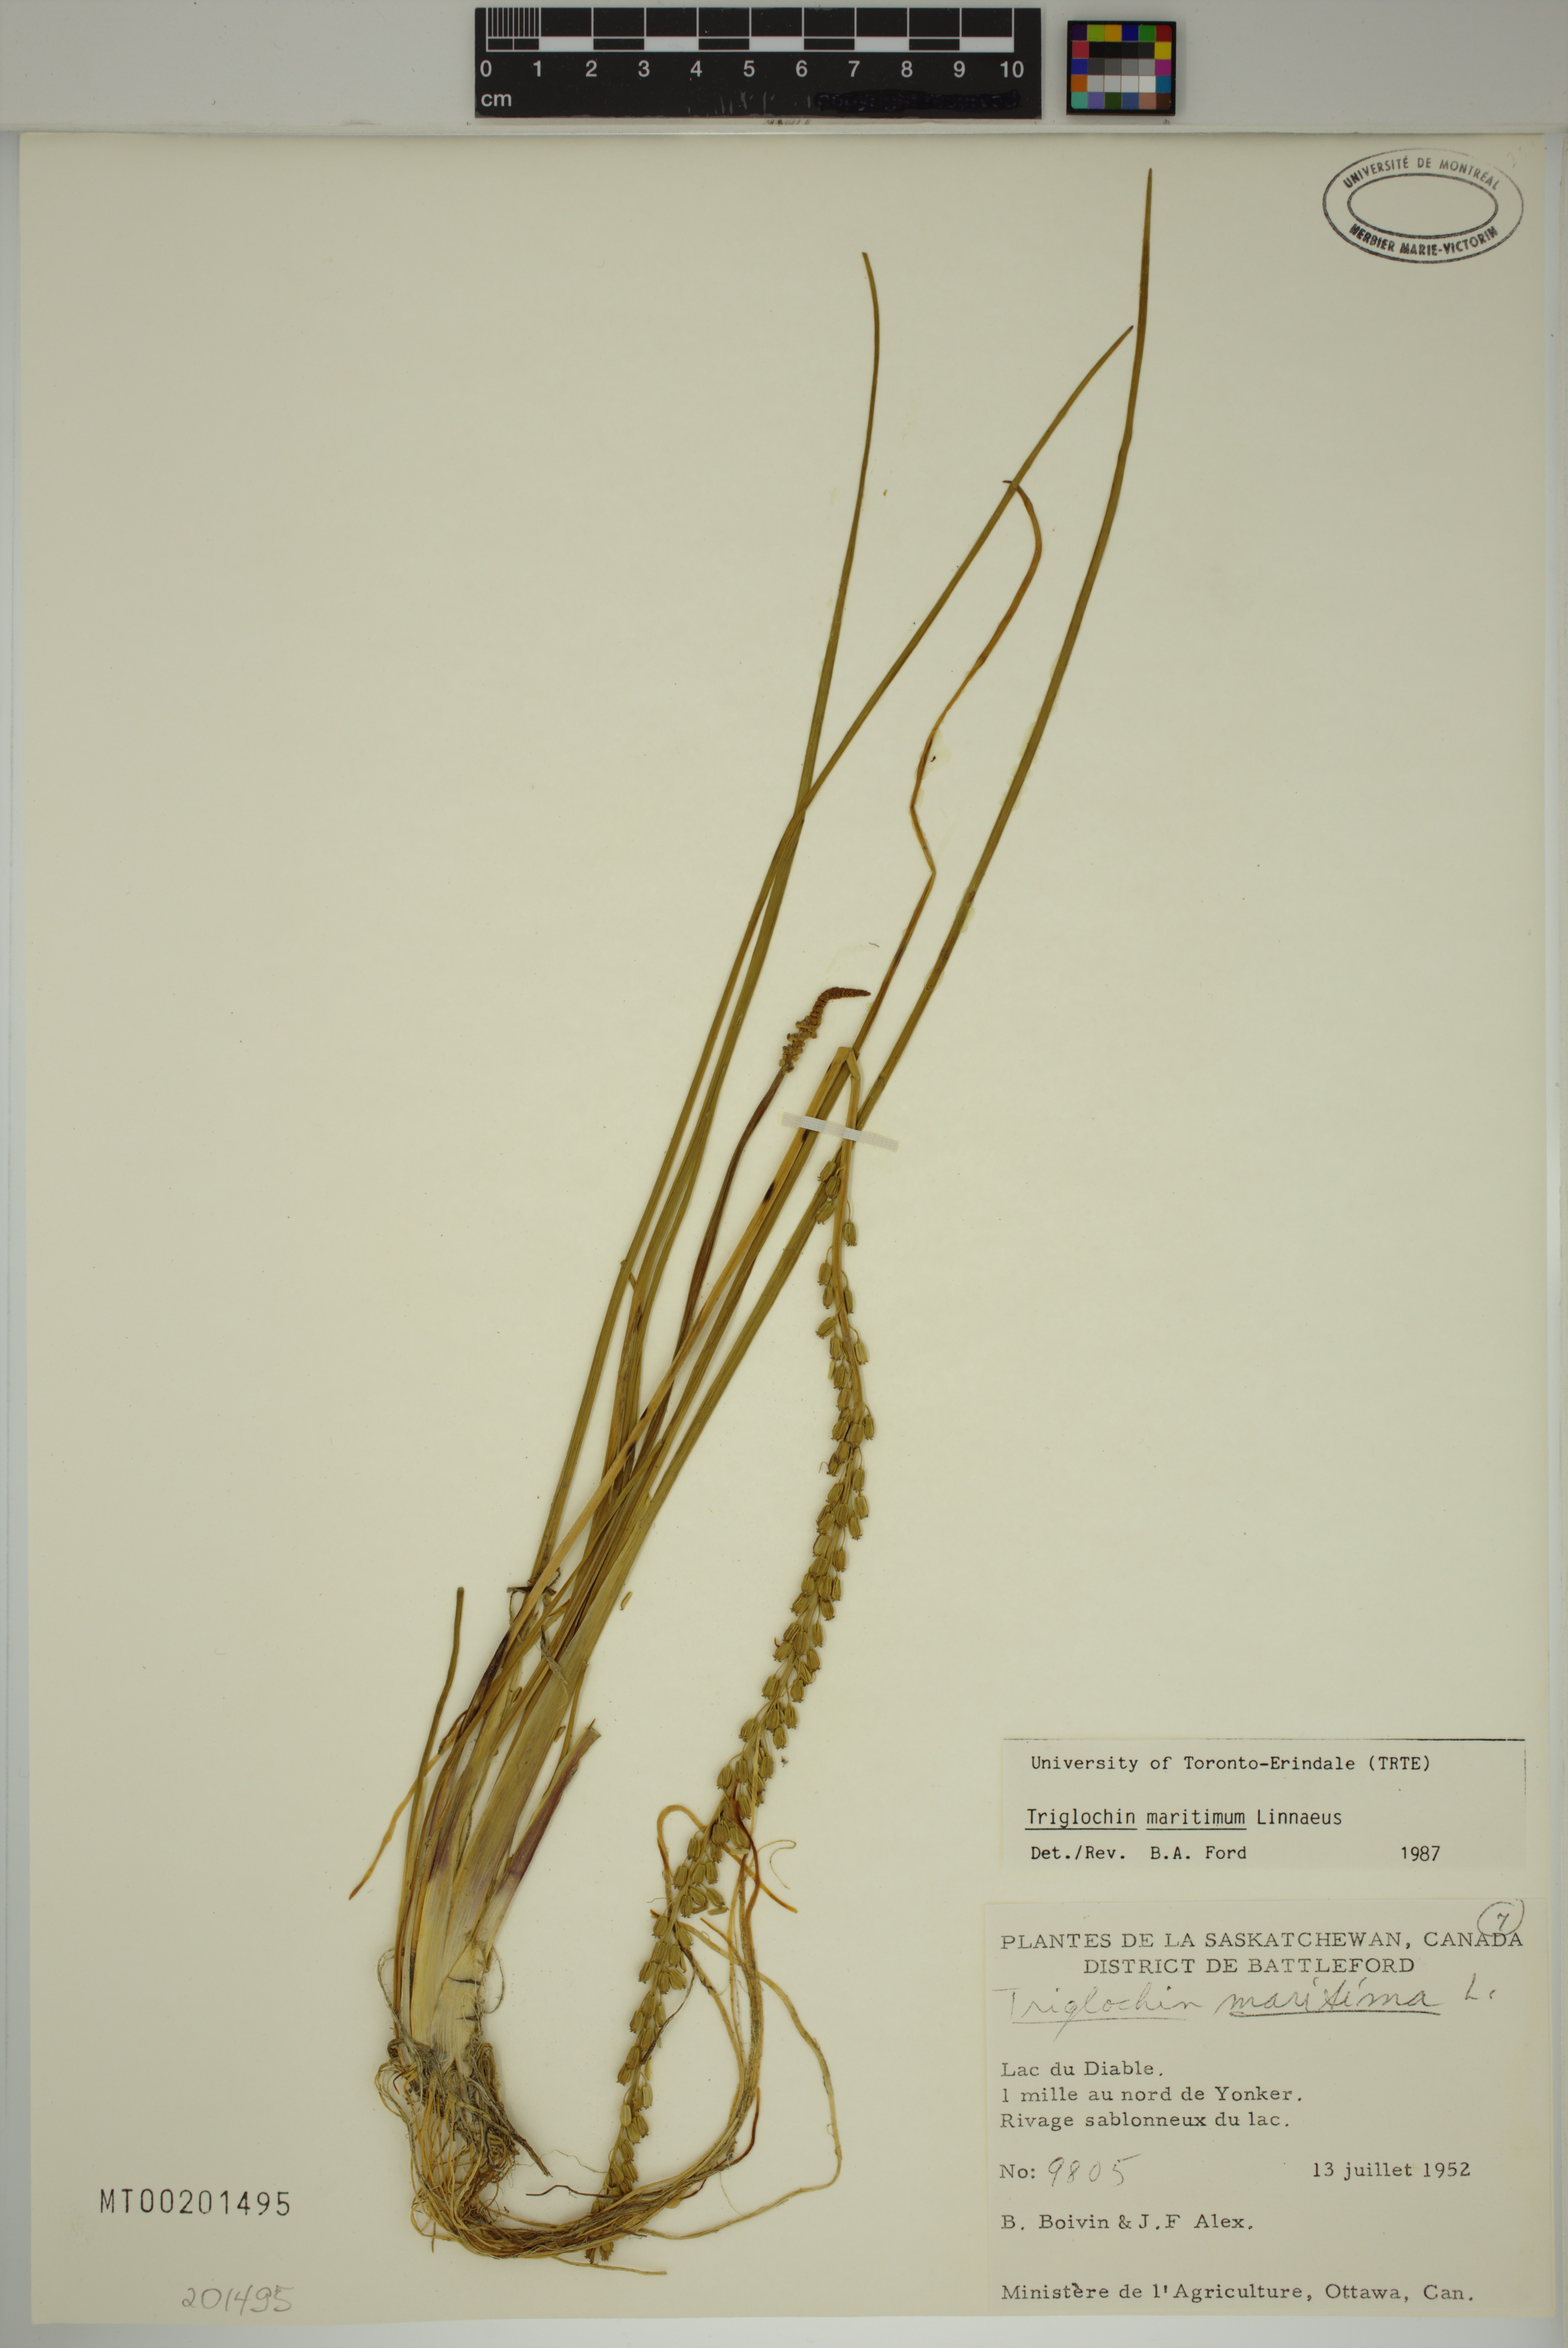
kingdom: Plantae
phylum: Tracheophyta
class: Liliopsida
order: Alismatales
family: Juncaginaceae
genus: Triglochin
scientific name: Triglochin maritima
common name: Sea arrowgrass
